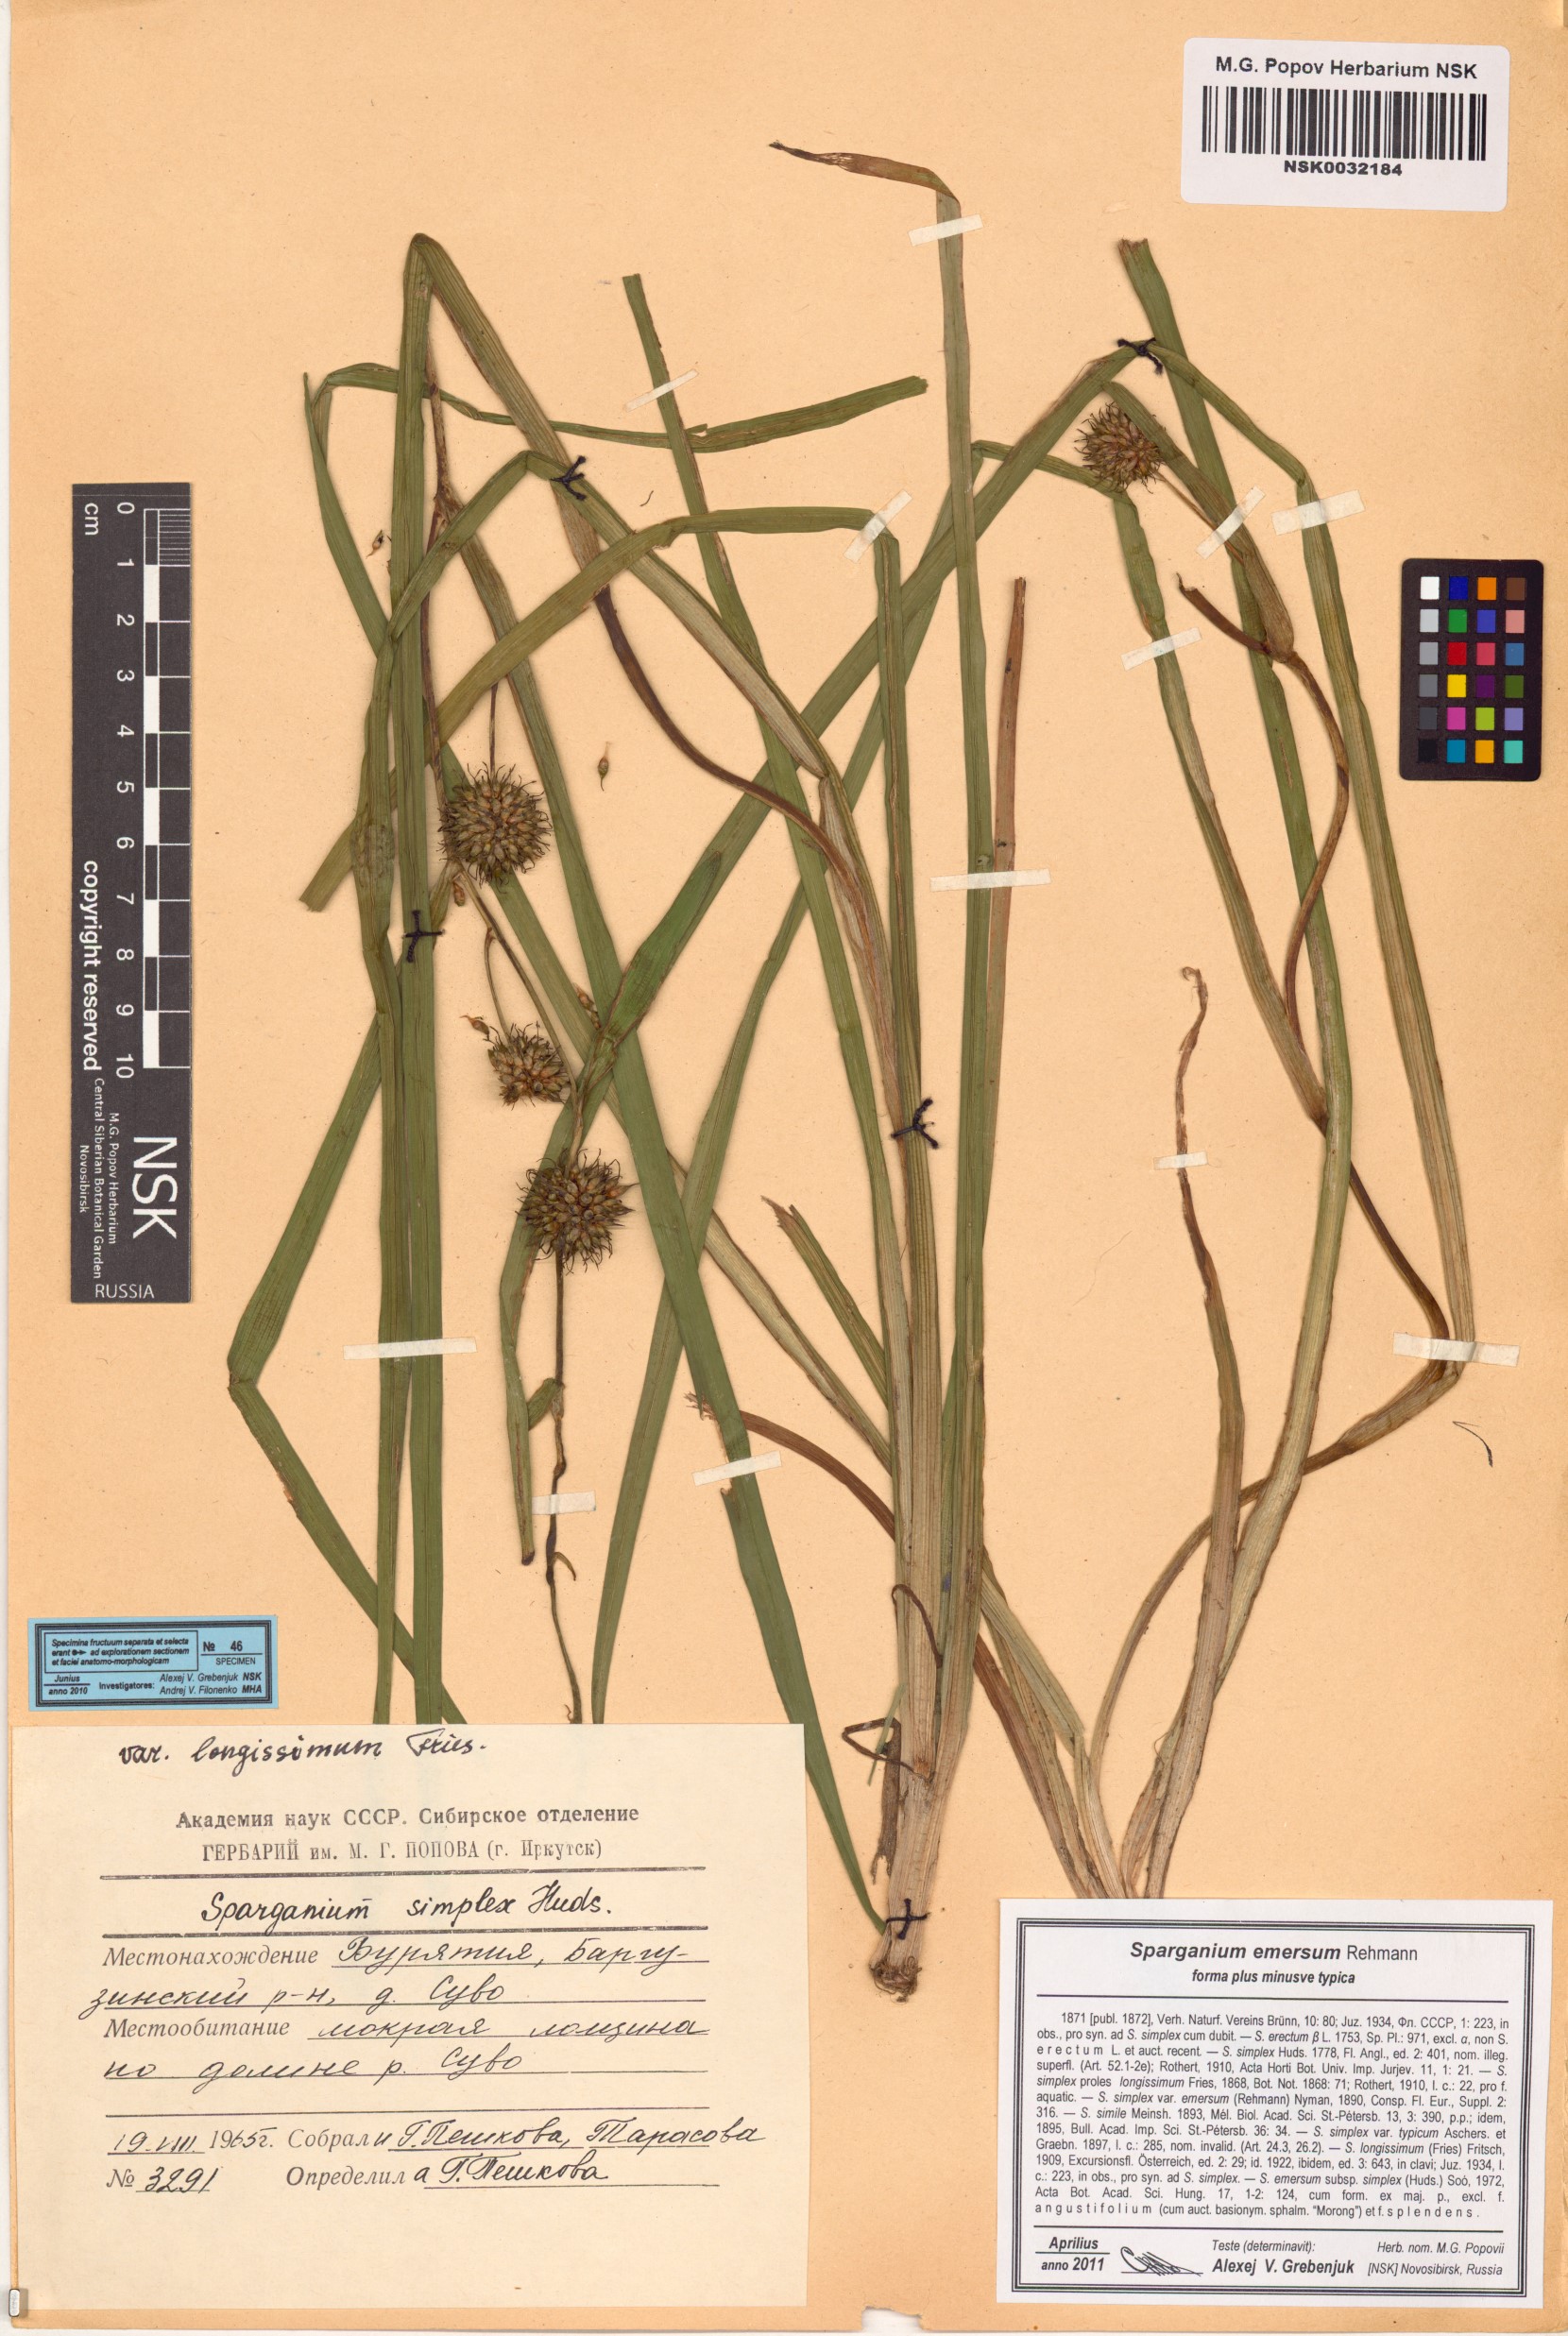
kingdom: Plantae
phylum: Tracheophyta
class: Liliopsida
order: Poales
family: Typhaceae
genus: Sparganium
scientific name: Sparganium emersum
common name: Unbranched bur-reed
